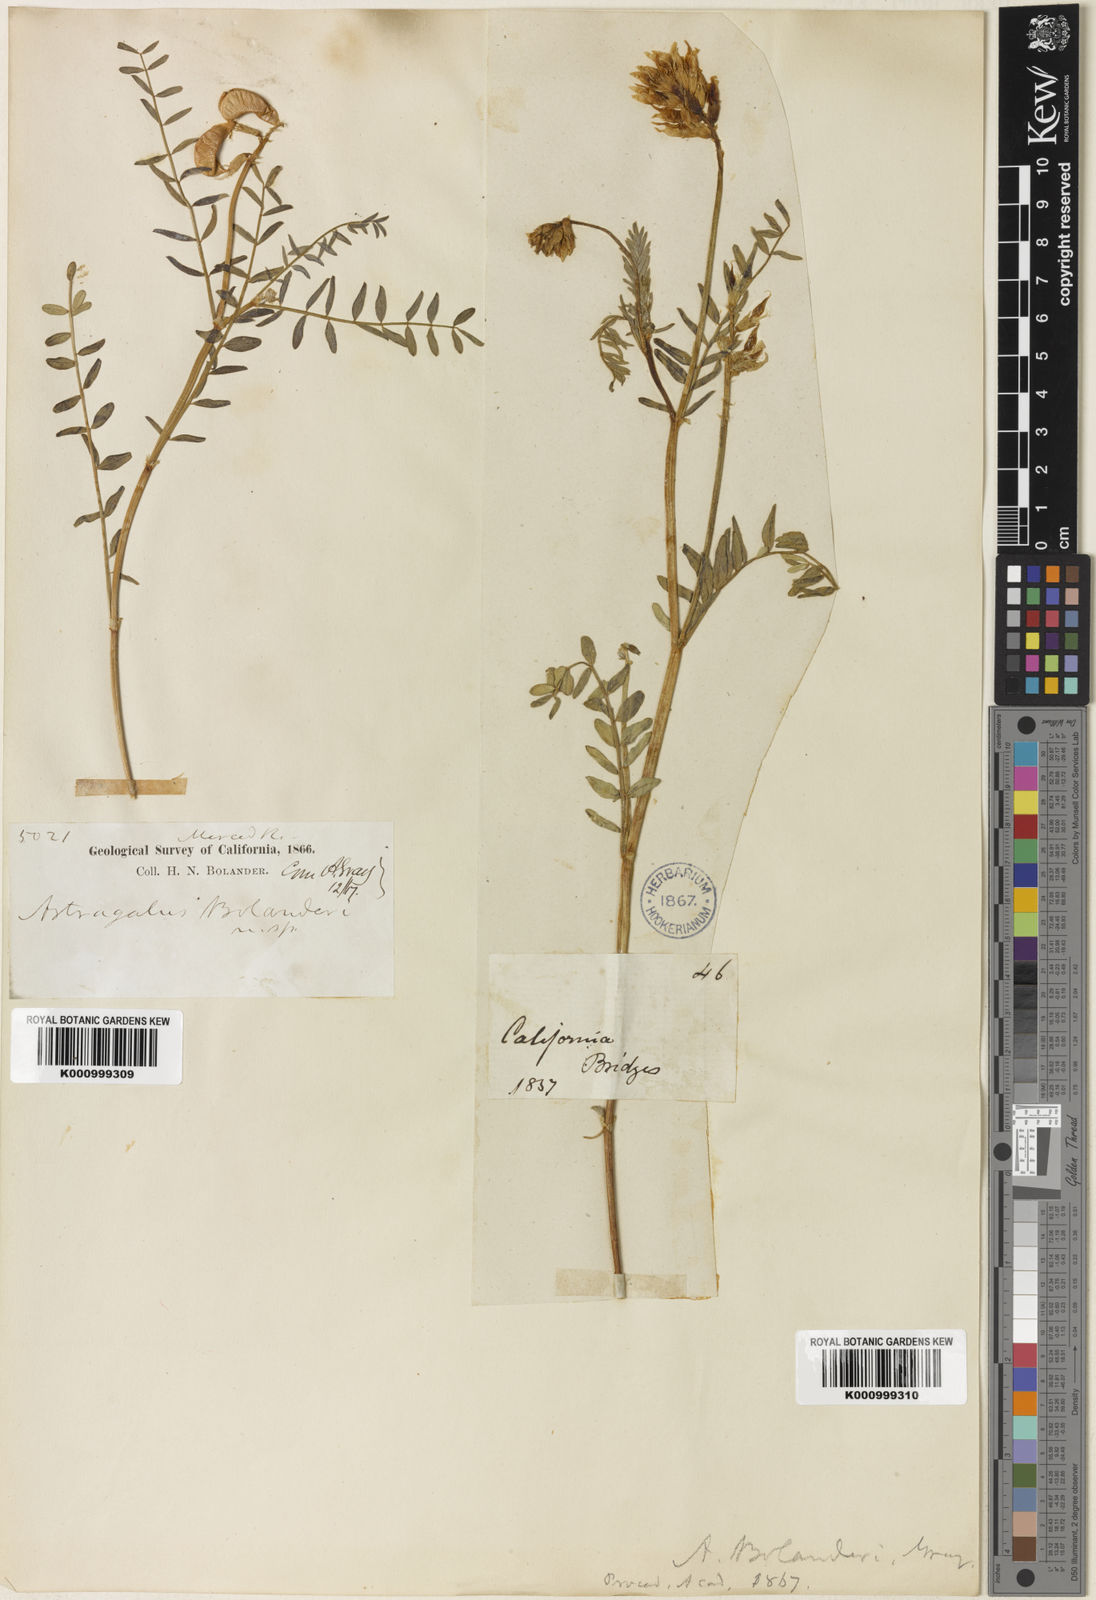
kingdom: Plantae
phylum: Tracheophyta
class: Magnoliopsida
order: Fabales
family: Fabaceae
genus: Astragalus
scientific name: Astragalus bolanderi
